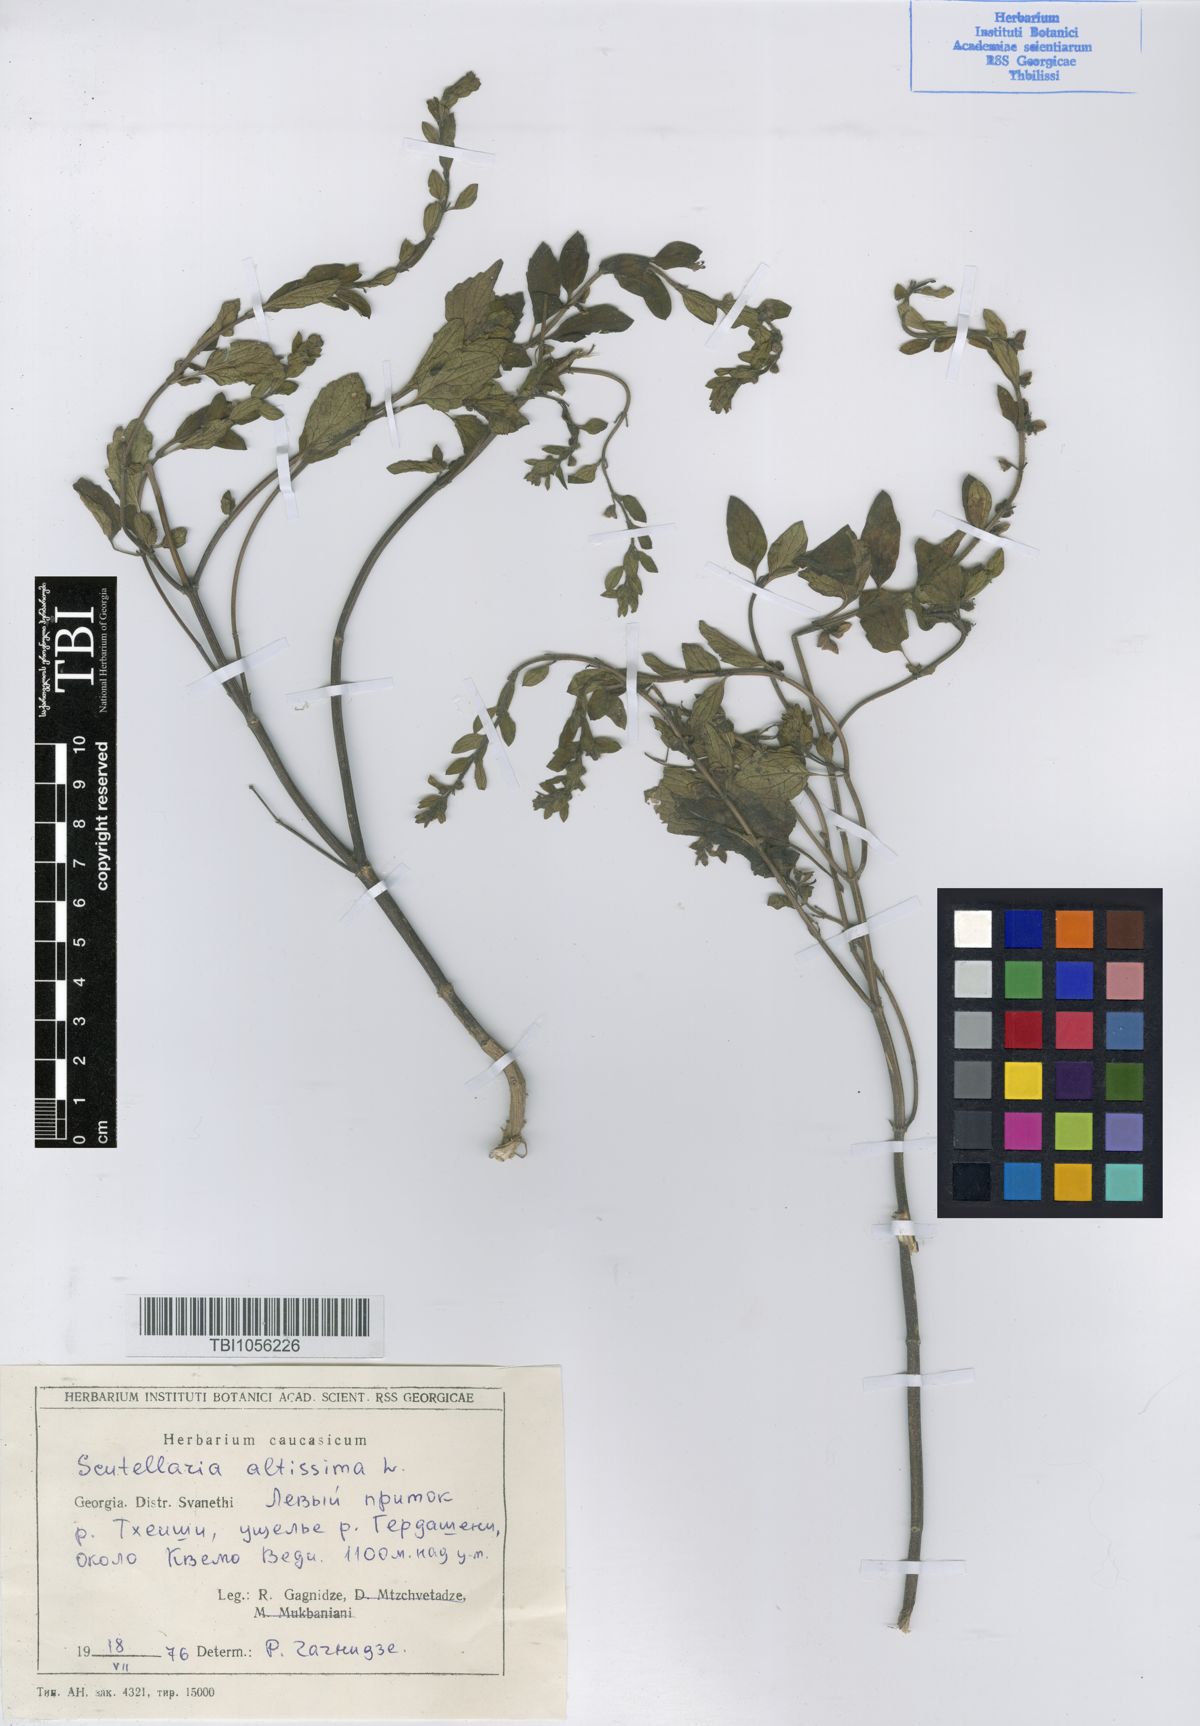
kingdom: Plantae
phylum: Tracheophyta
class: Magnoliopsida
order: Lamiales
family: Lamiaceae
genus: Scutellaria
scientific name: Scutellaria altissima
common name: Somerset skullcap
